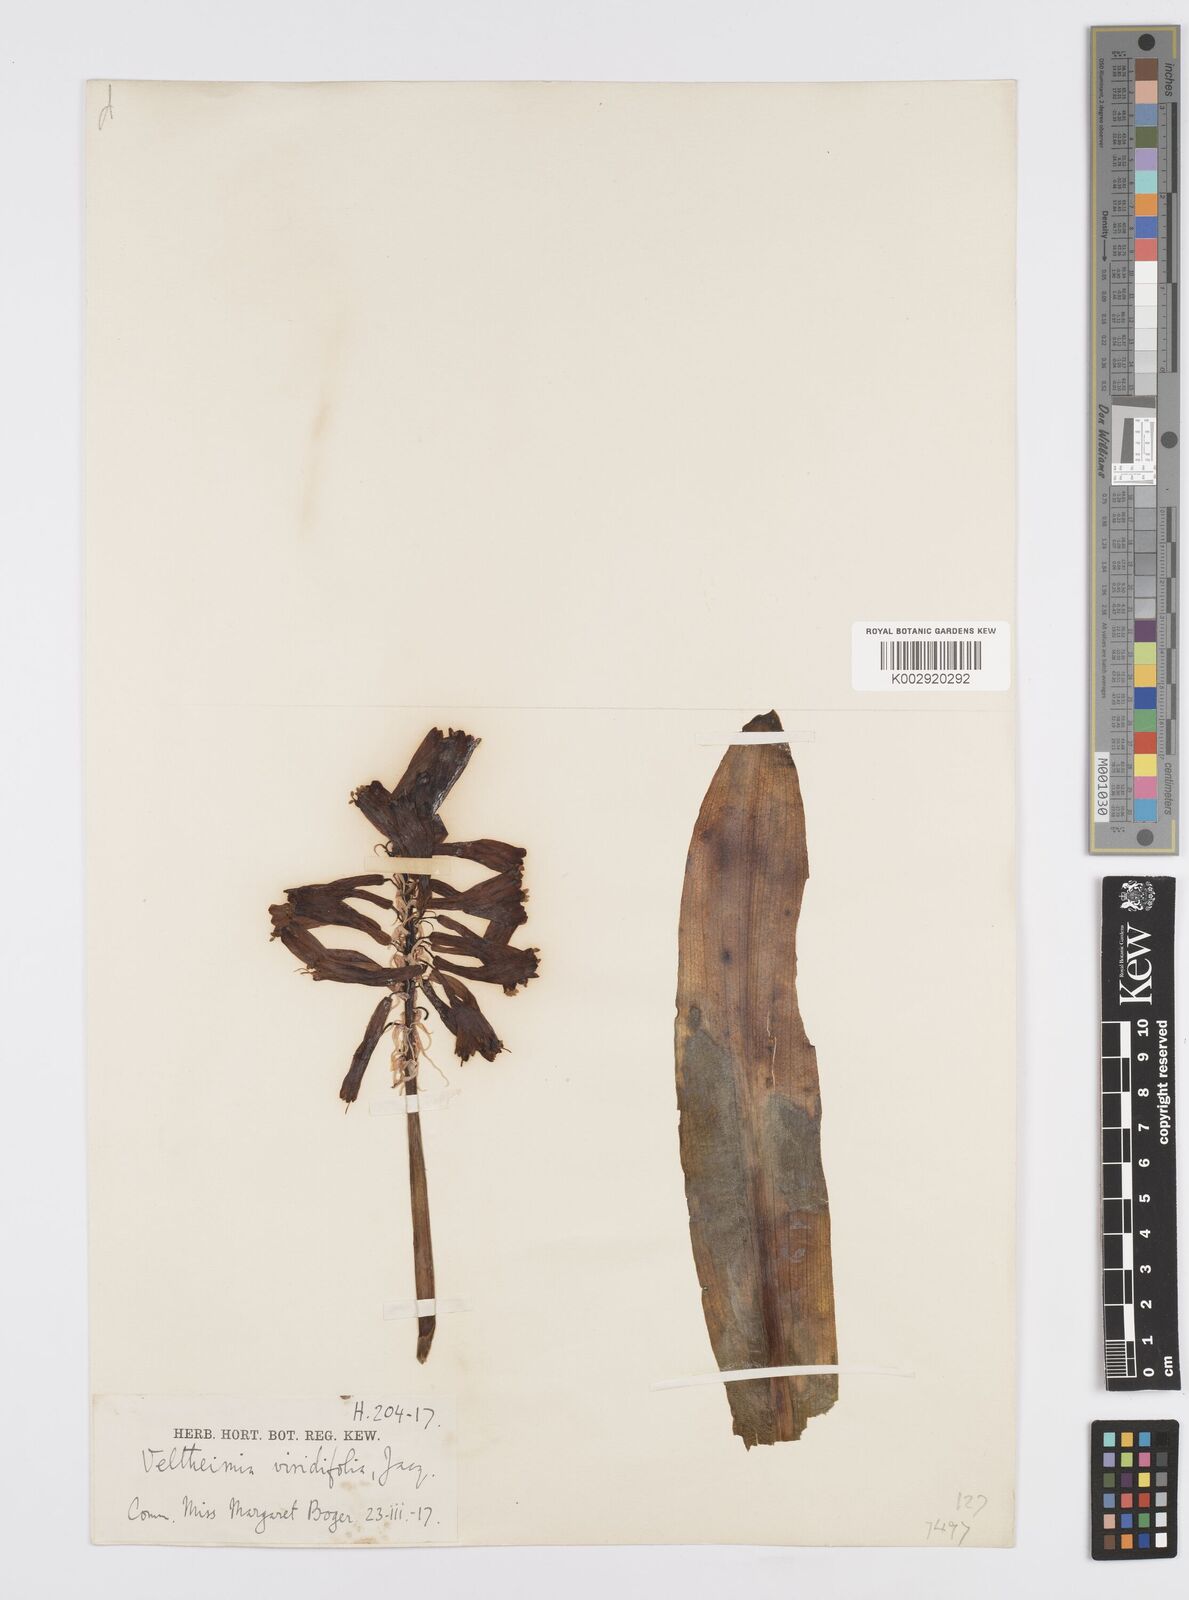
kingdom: Plantae
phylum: Tracheophyta
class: Liliopsida
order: Asparagales
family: Asparagaceae
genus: Veltheimia
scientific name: Veltheimia bracteata
